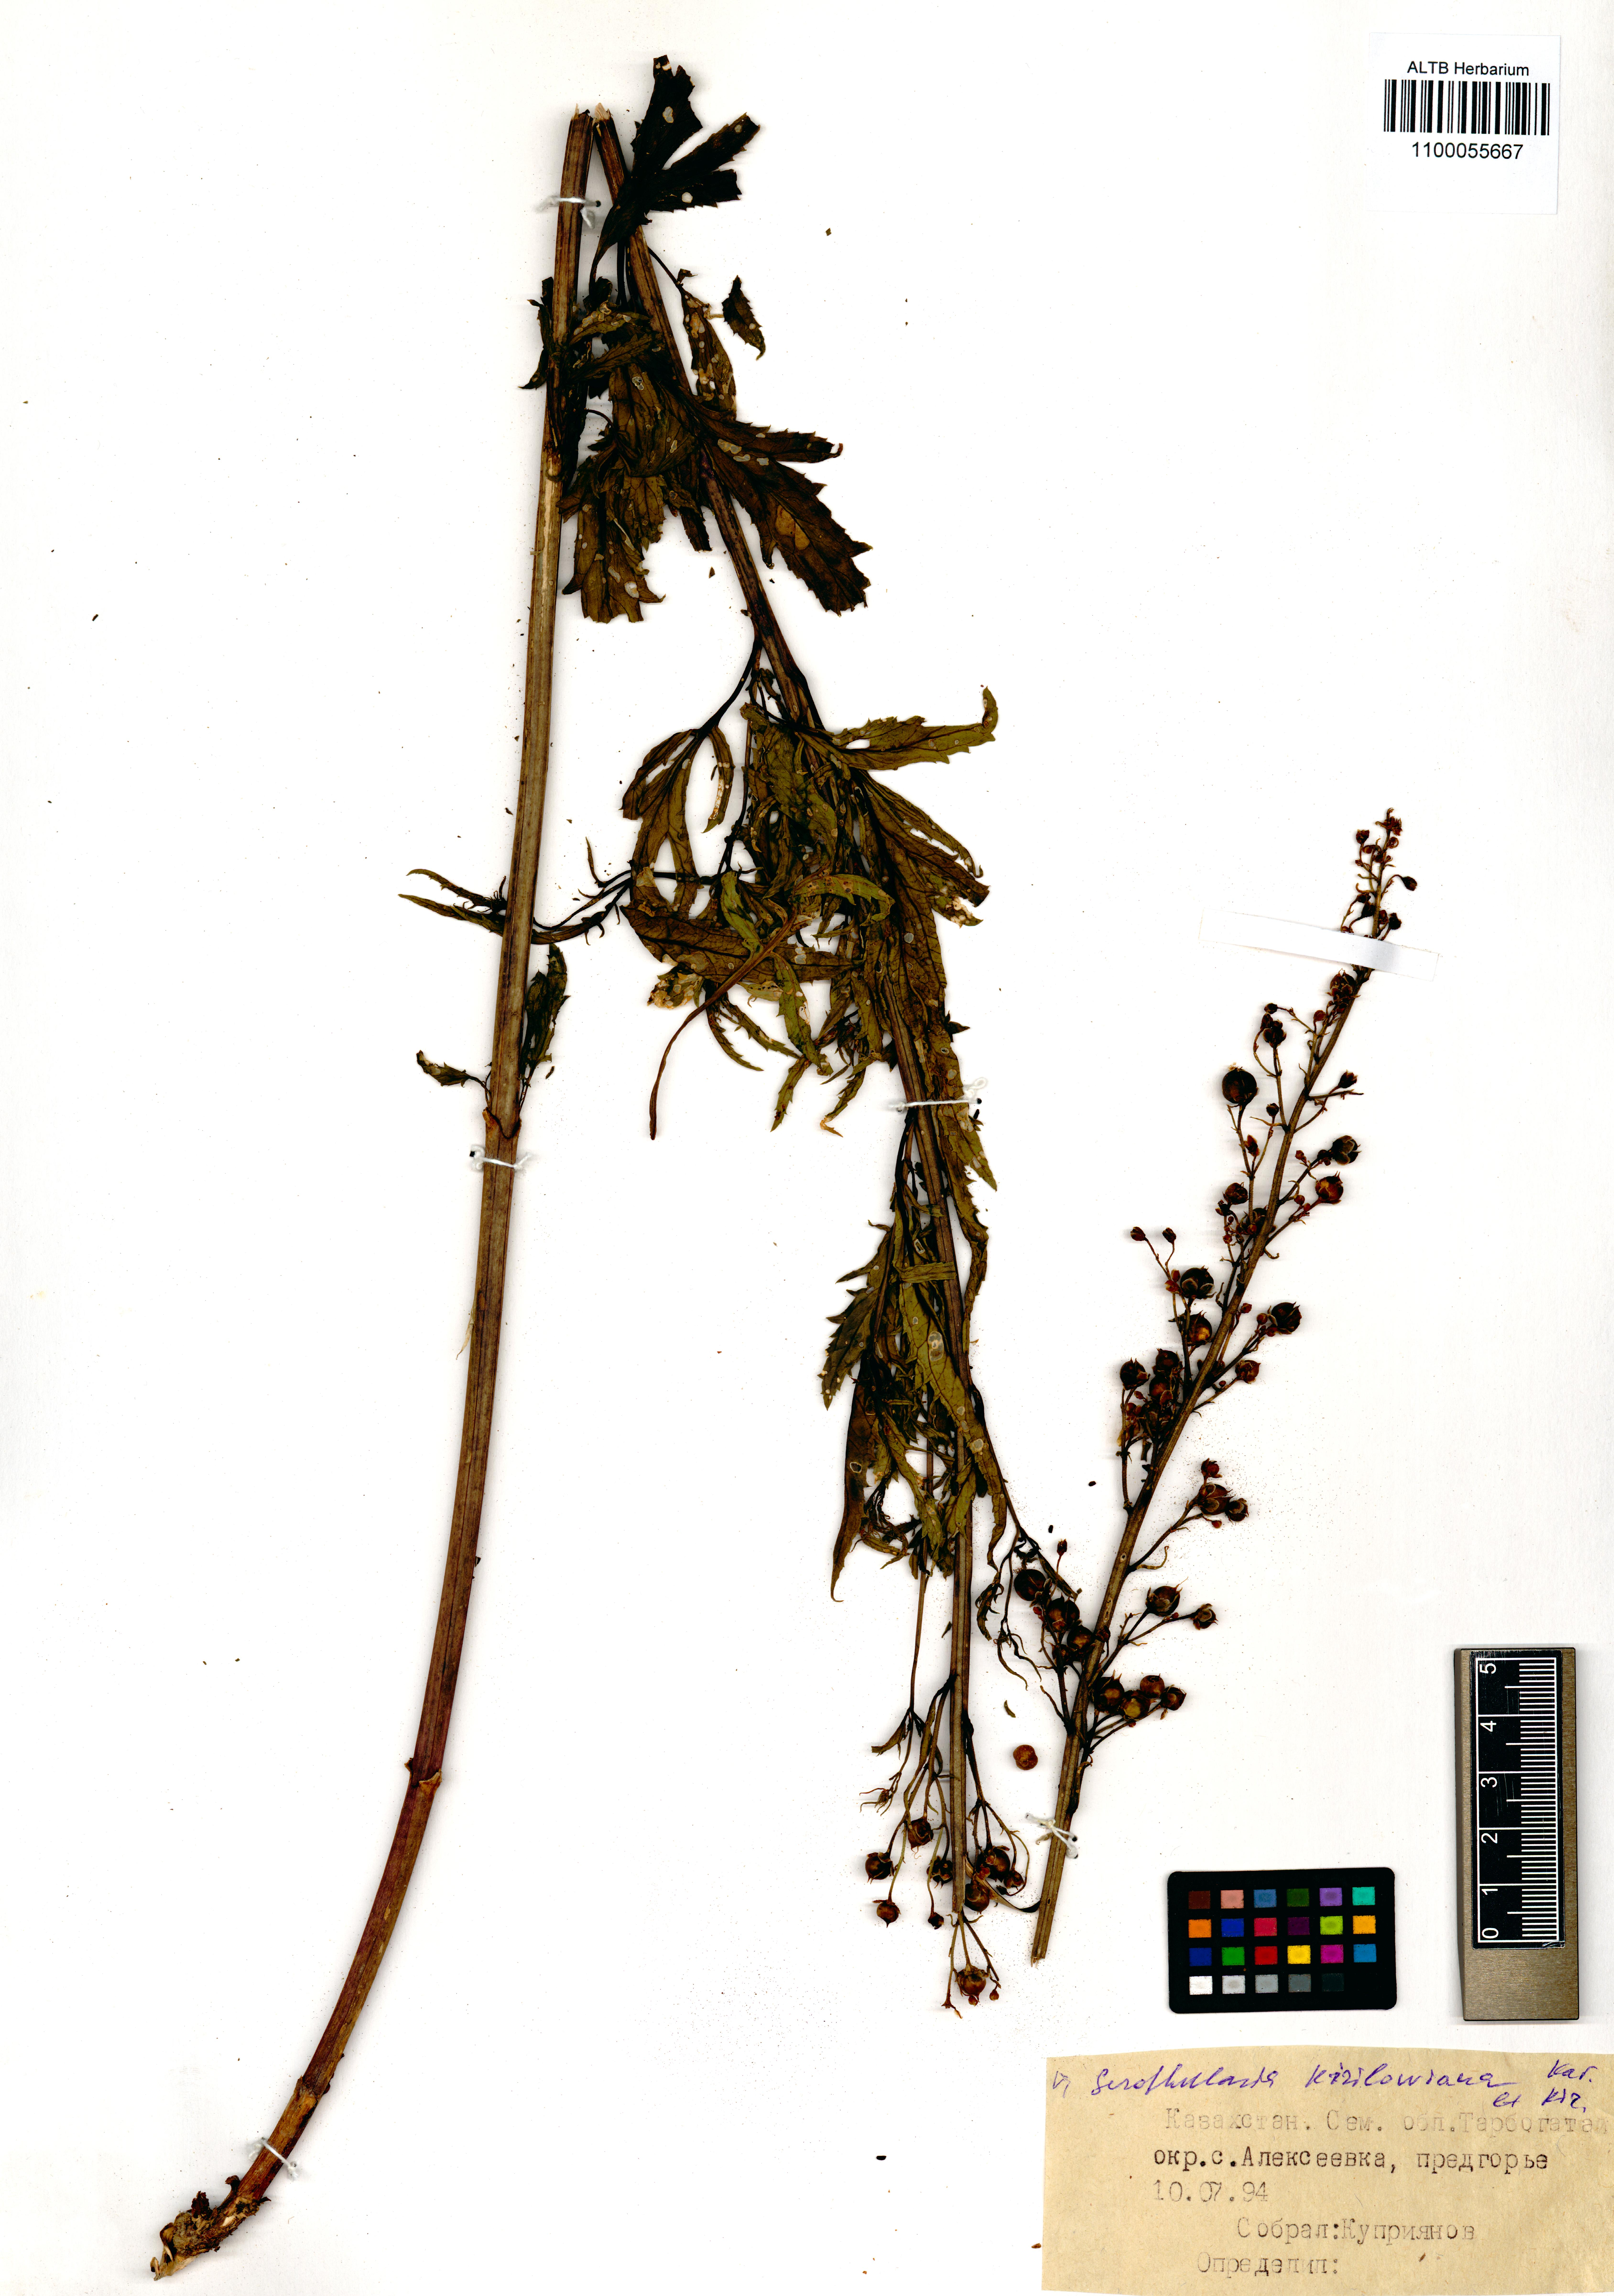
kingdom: Plantae
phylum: Tracheophyta
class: Magnoliopsida
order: Lamiales
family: Scrophulariaceae
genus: Scrophularia
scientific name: Scrophularia kiriloviana
